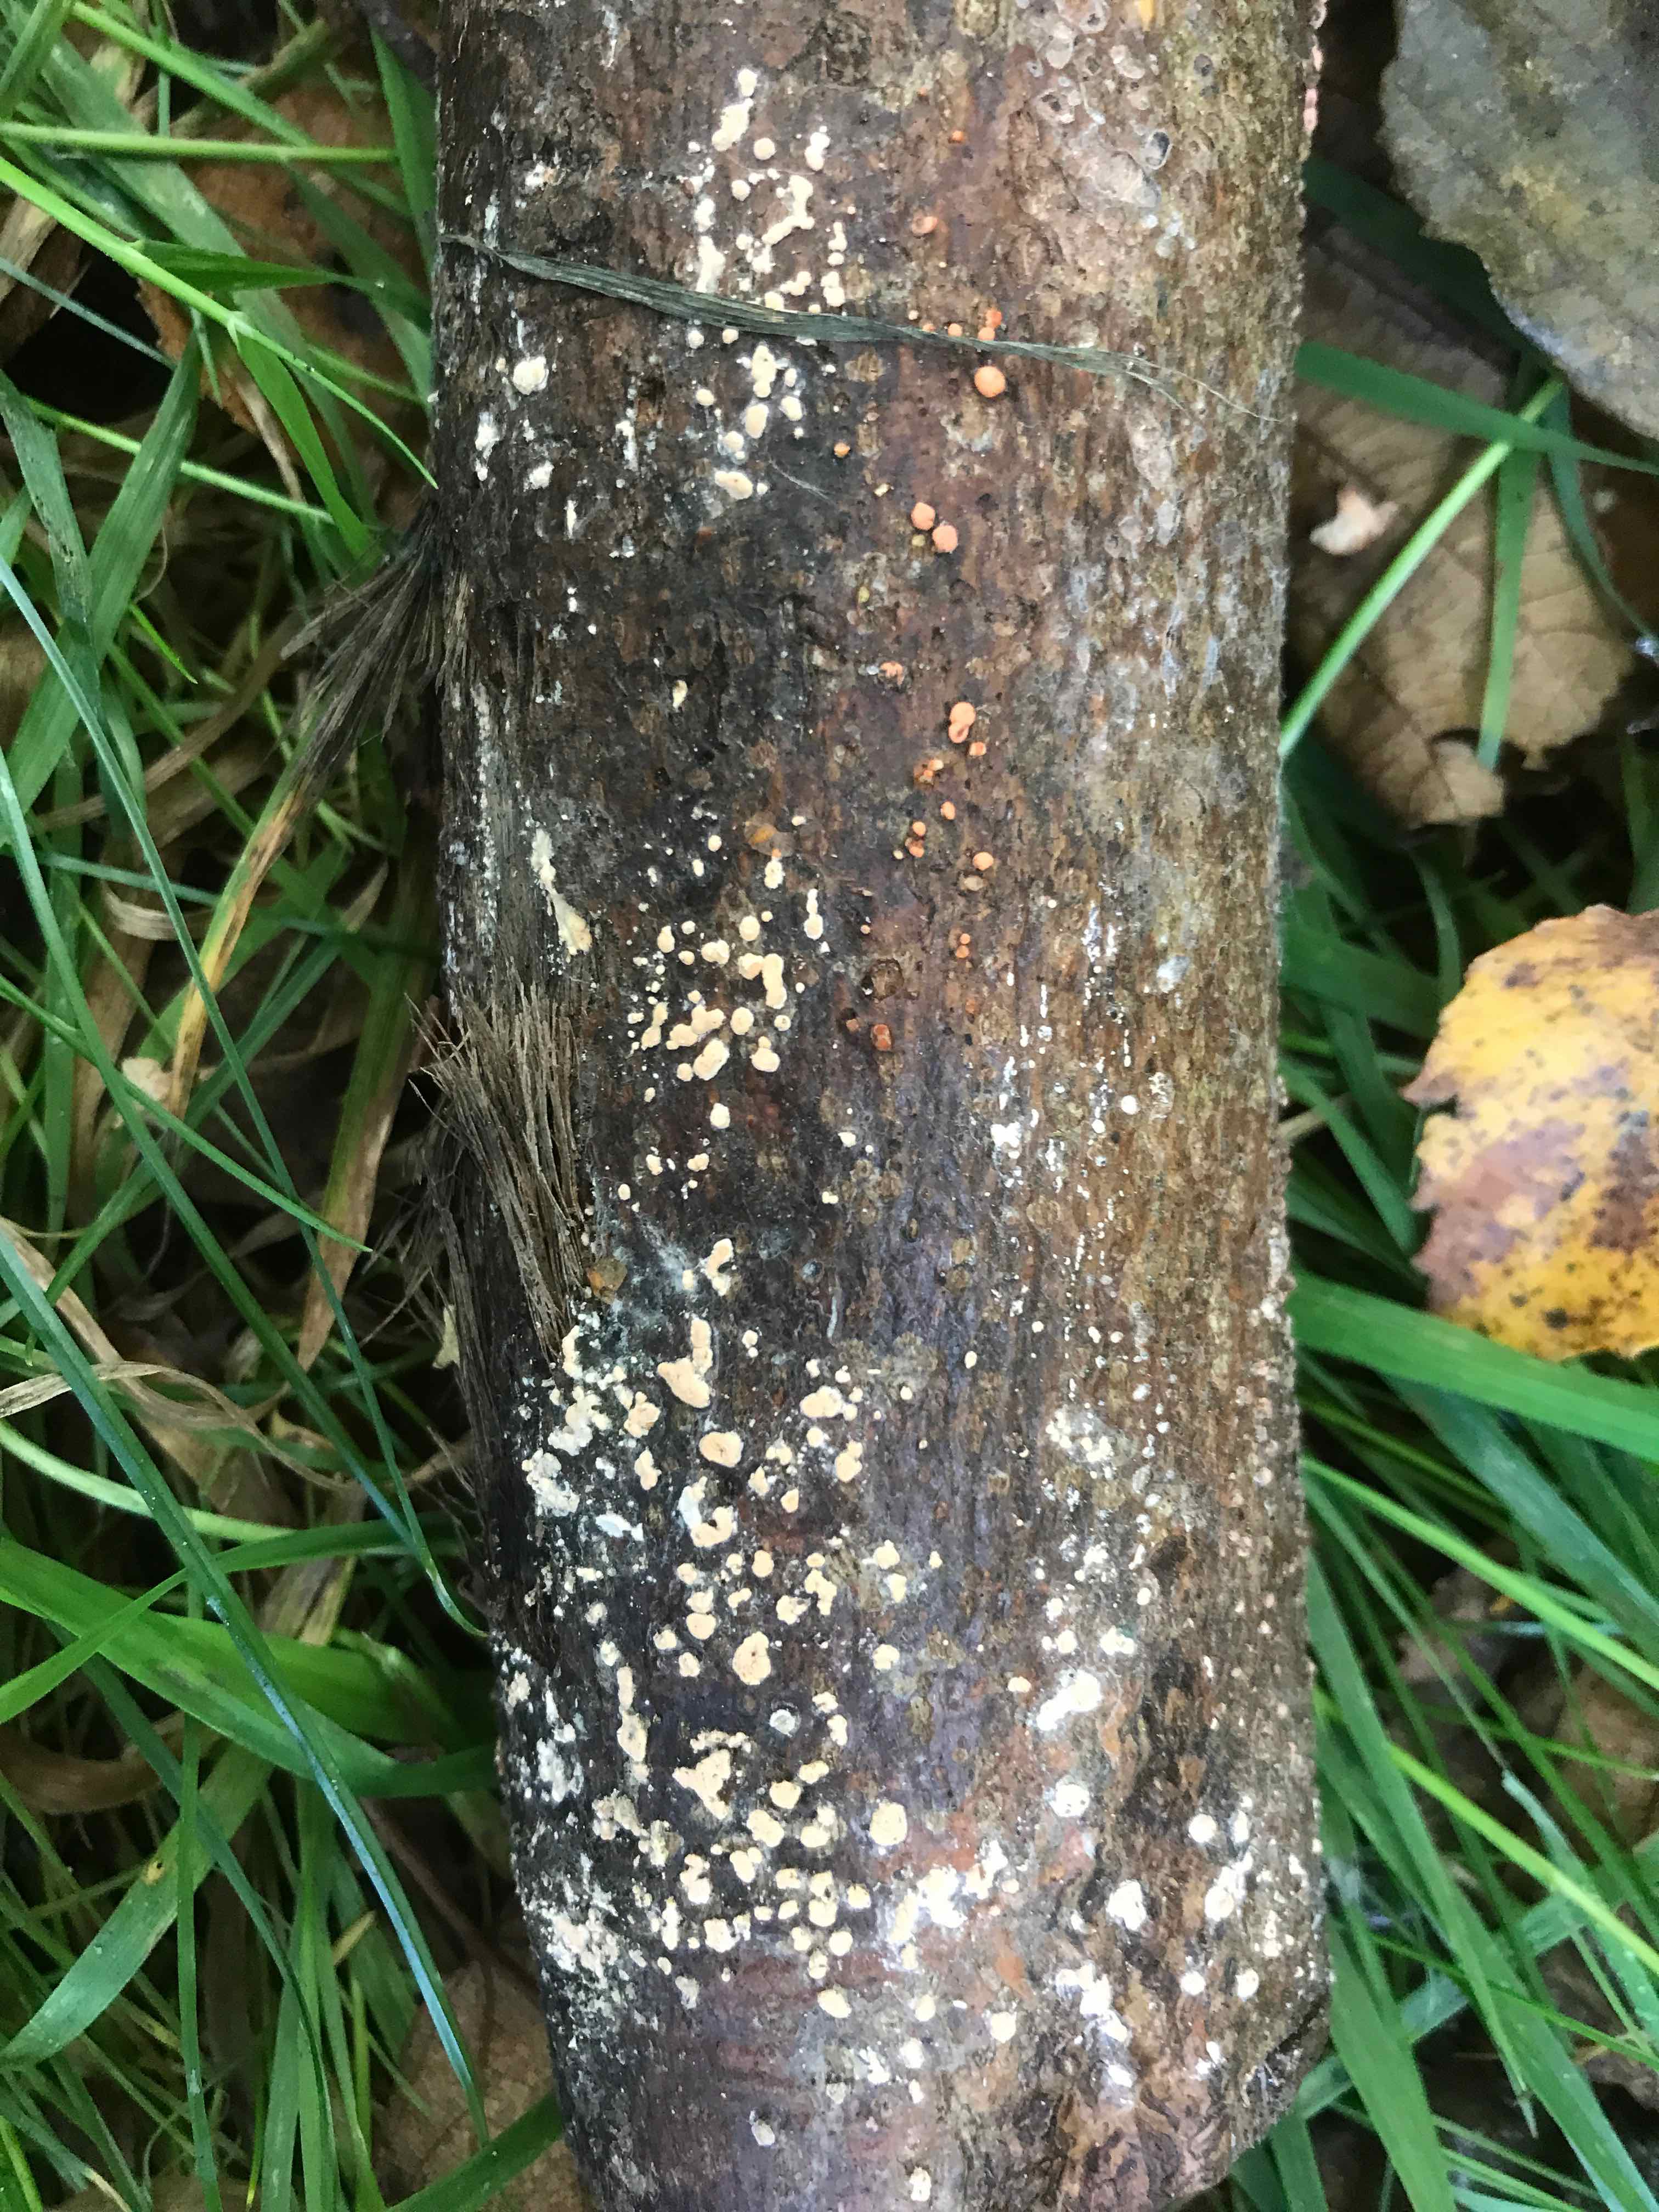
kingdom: Fungi
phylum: Ascomycota
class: Sordariomycetes
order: Hypocreales
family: Nectriaceae
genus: Nectria
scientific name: Nectria cinnabarina
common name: almindelig cinnobersvamp
